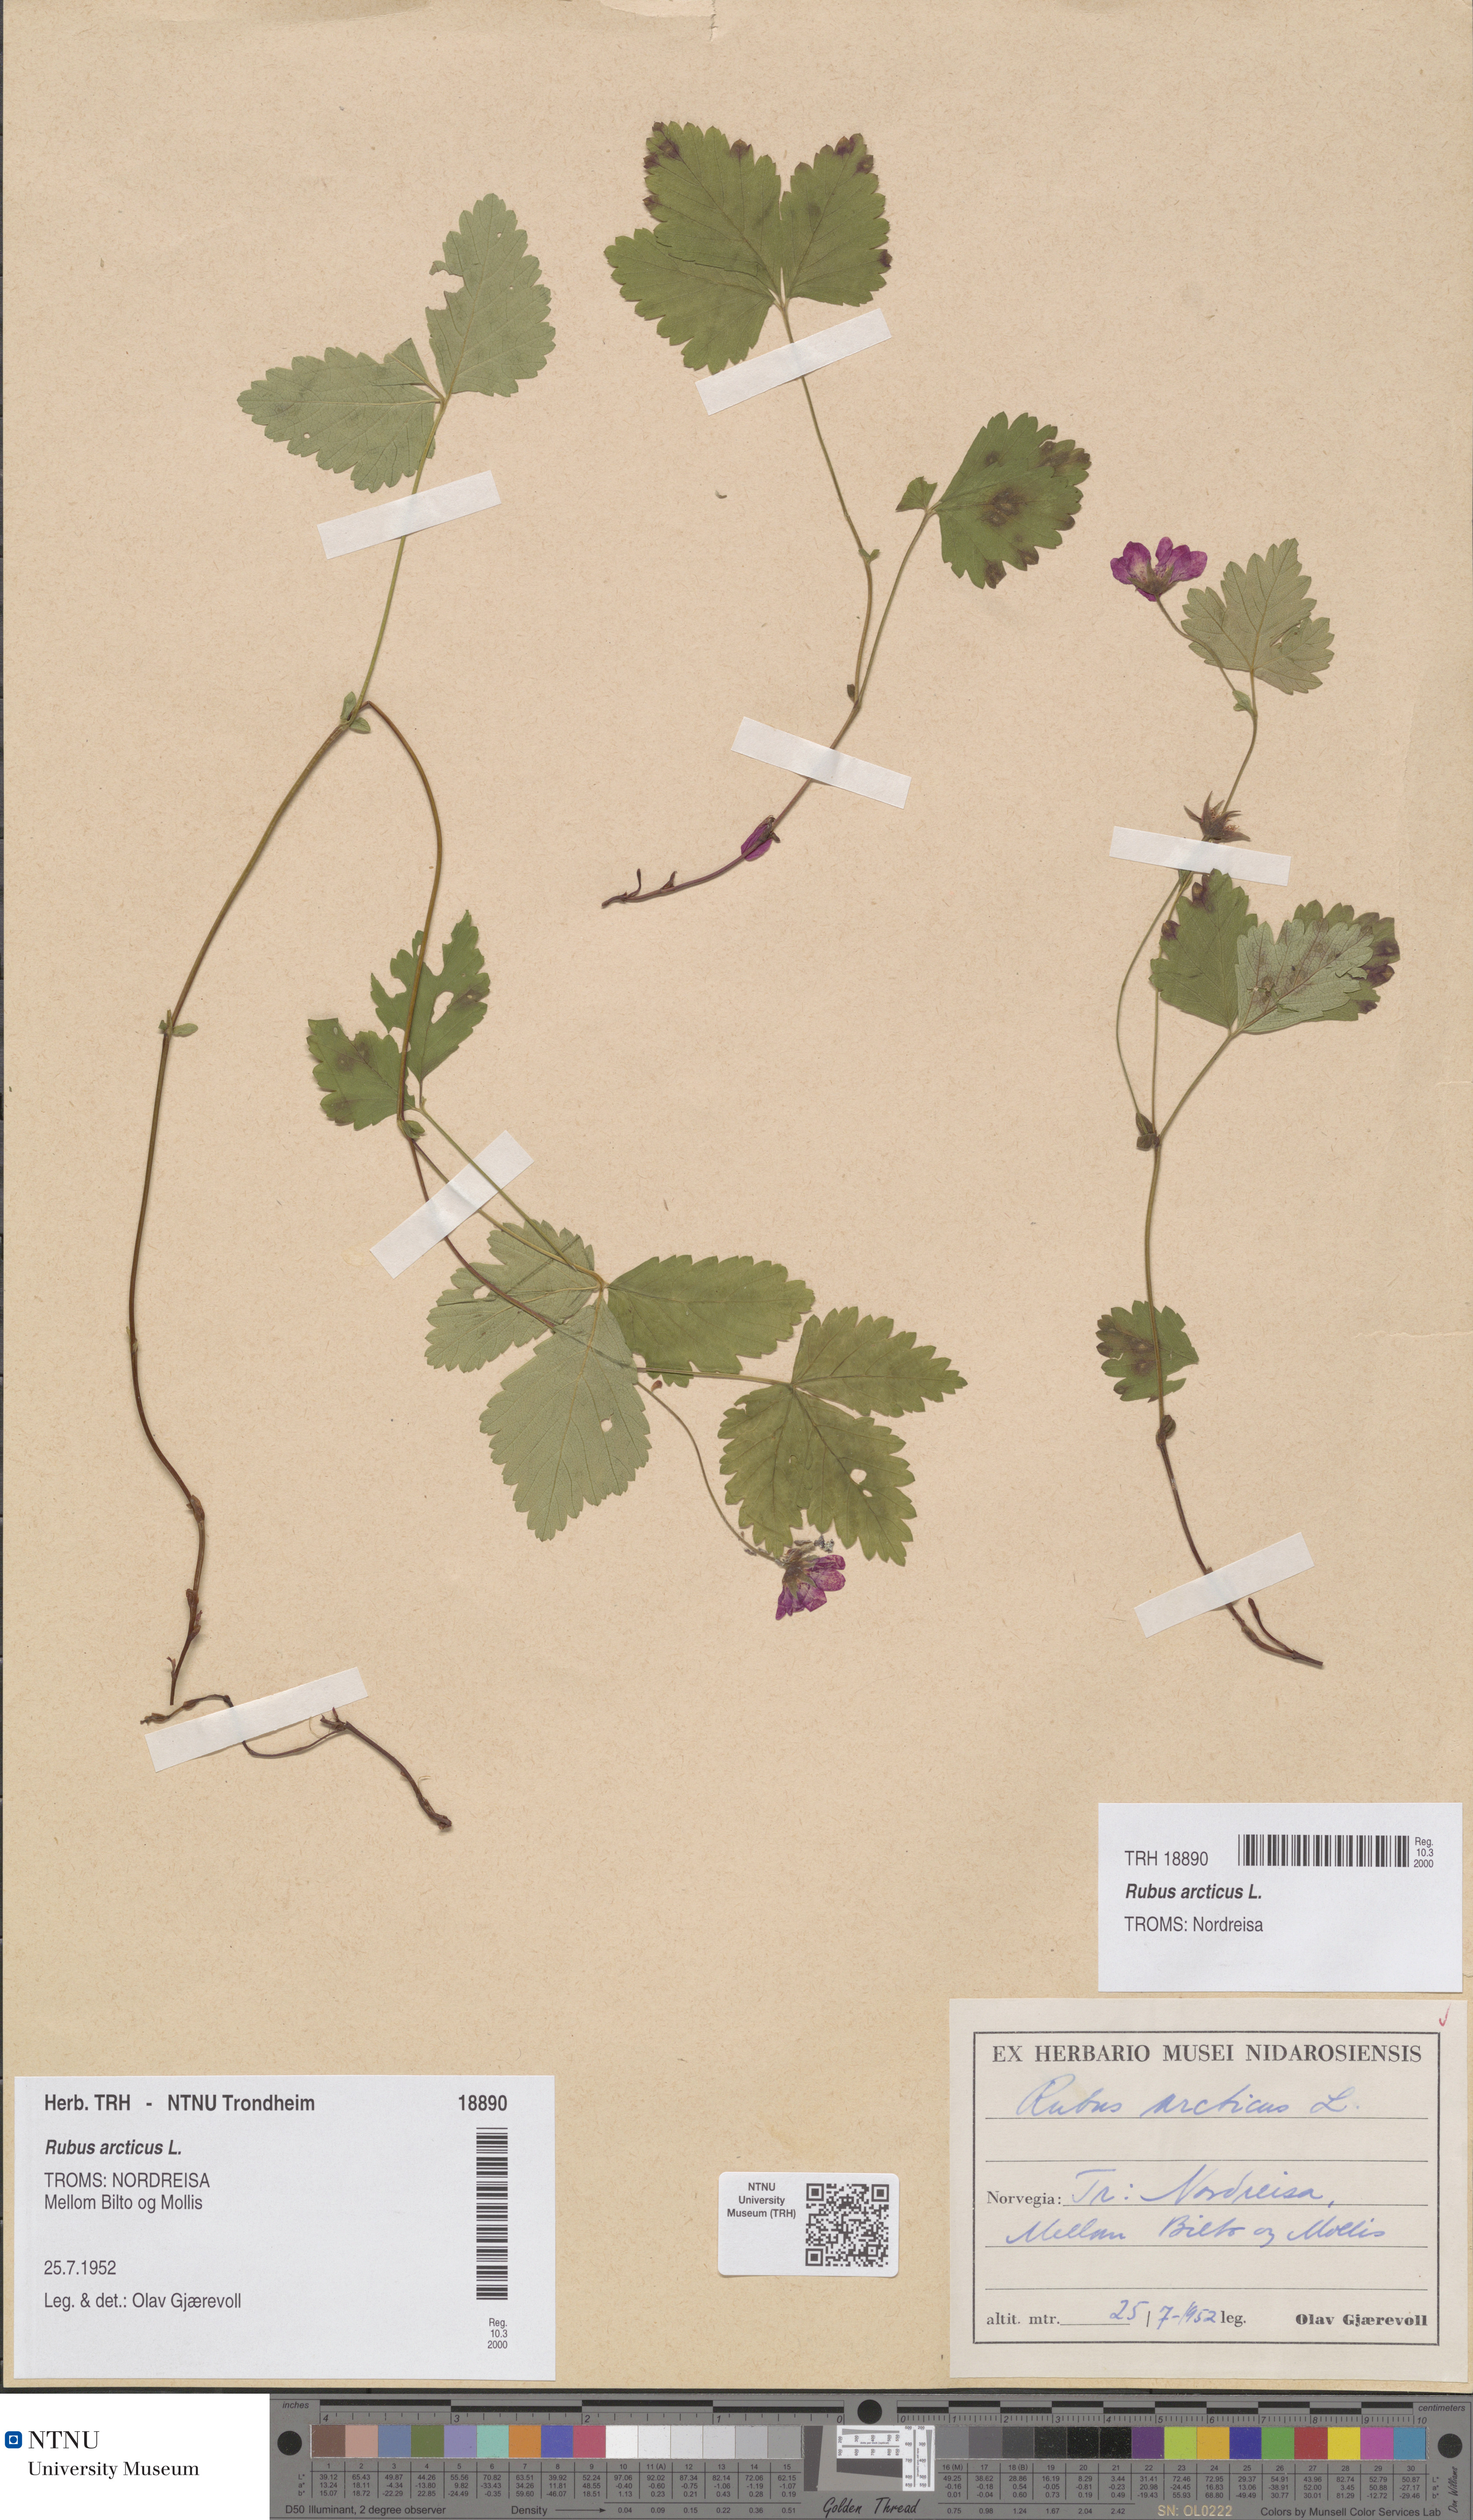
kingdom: Plantae
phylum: Tracheophyta
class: Magnoliopsida
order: Rosales
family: Rosaceae
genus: Rubus
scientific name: Rubus arcticus
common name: Arctic bramble
